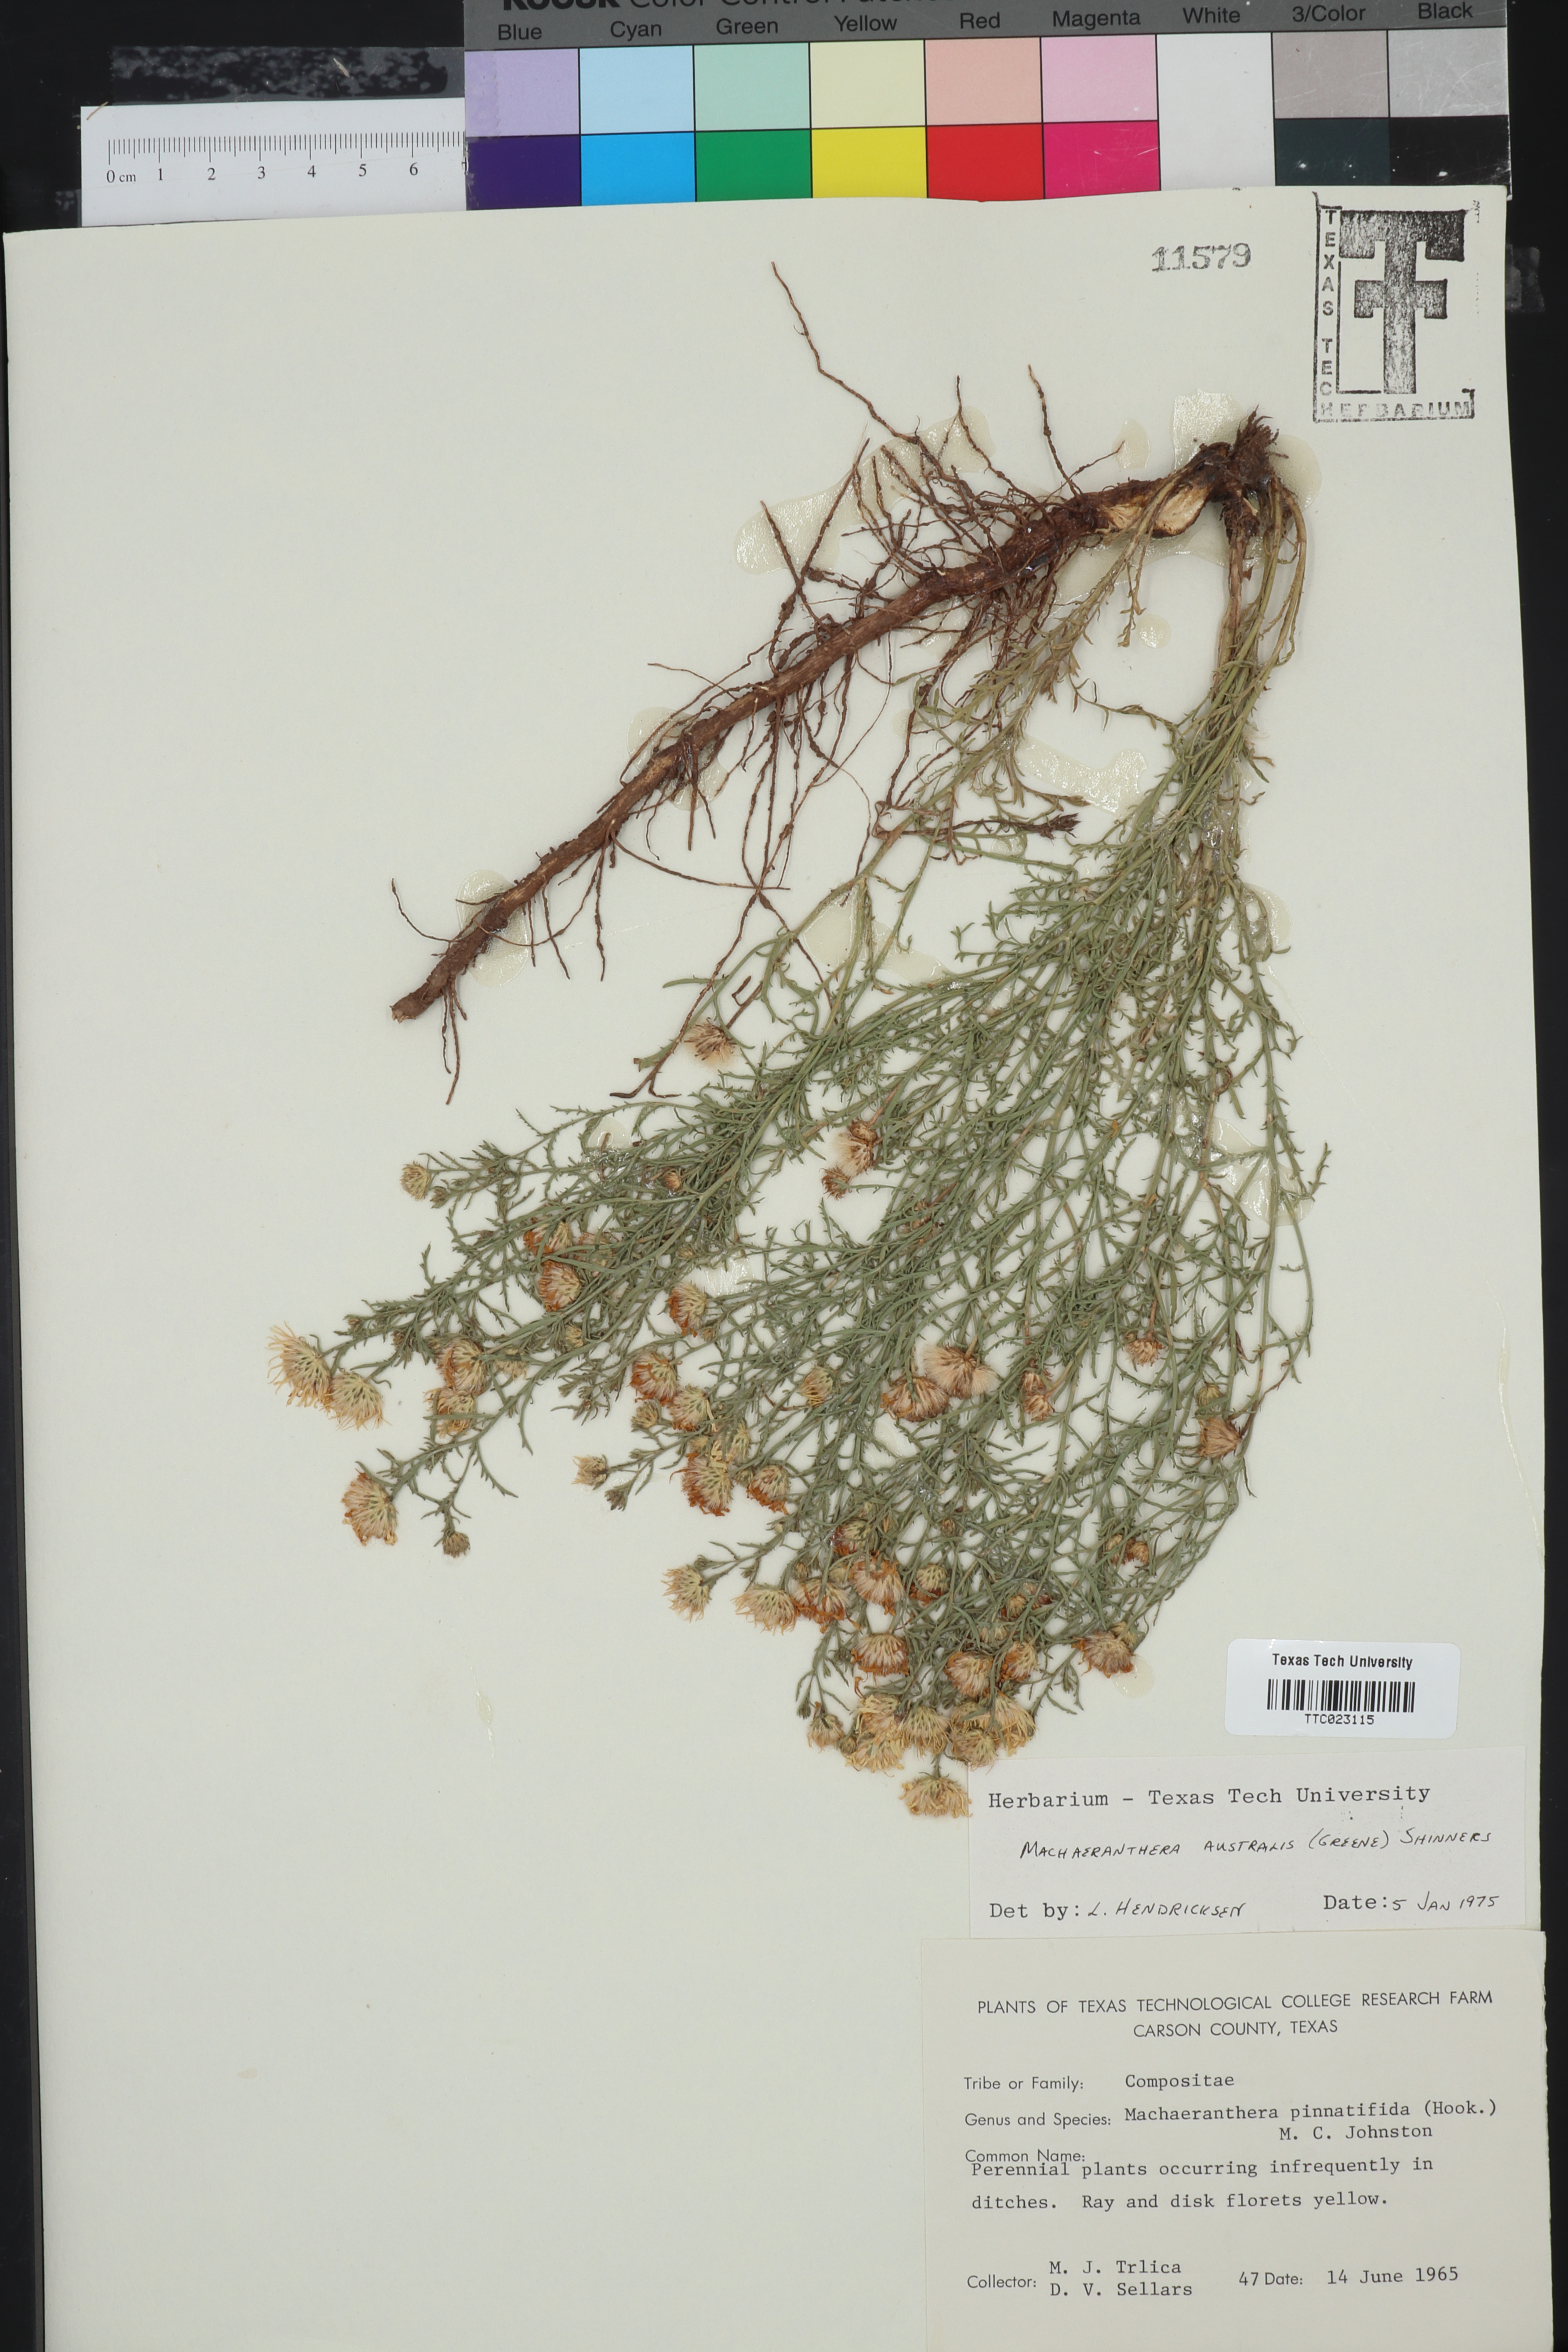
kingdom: Plantae
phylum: Tracheophyta
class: Magnoliopsida
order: Asterales
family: Asteraceae
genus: Xanthisma
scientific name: Xanthisma spinulosum
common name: Spiny goldenweed
